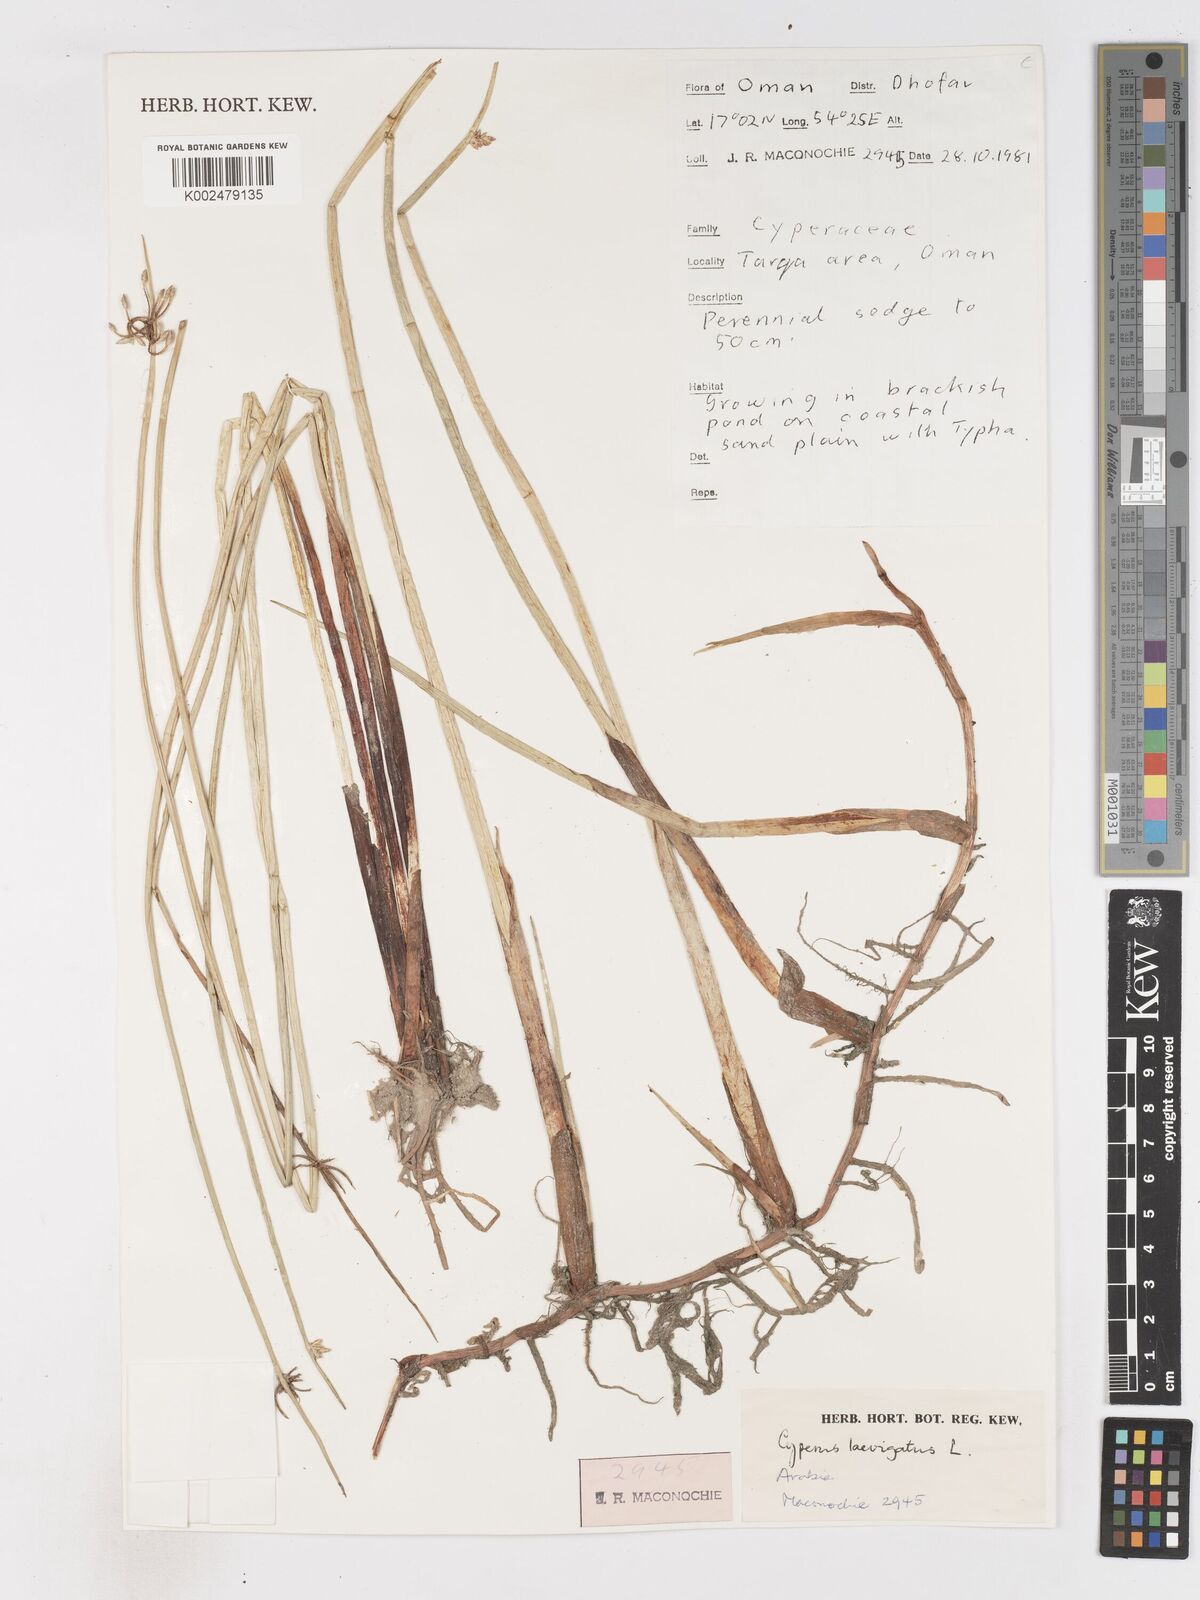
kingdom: Plantae
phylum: Tracheophyta
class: Liliopsida
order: Poales
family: Cyperaceae
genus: Cyperus
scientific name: Cyperus laevigatus
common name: Smooth flat sedge
